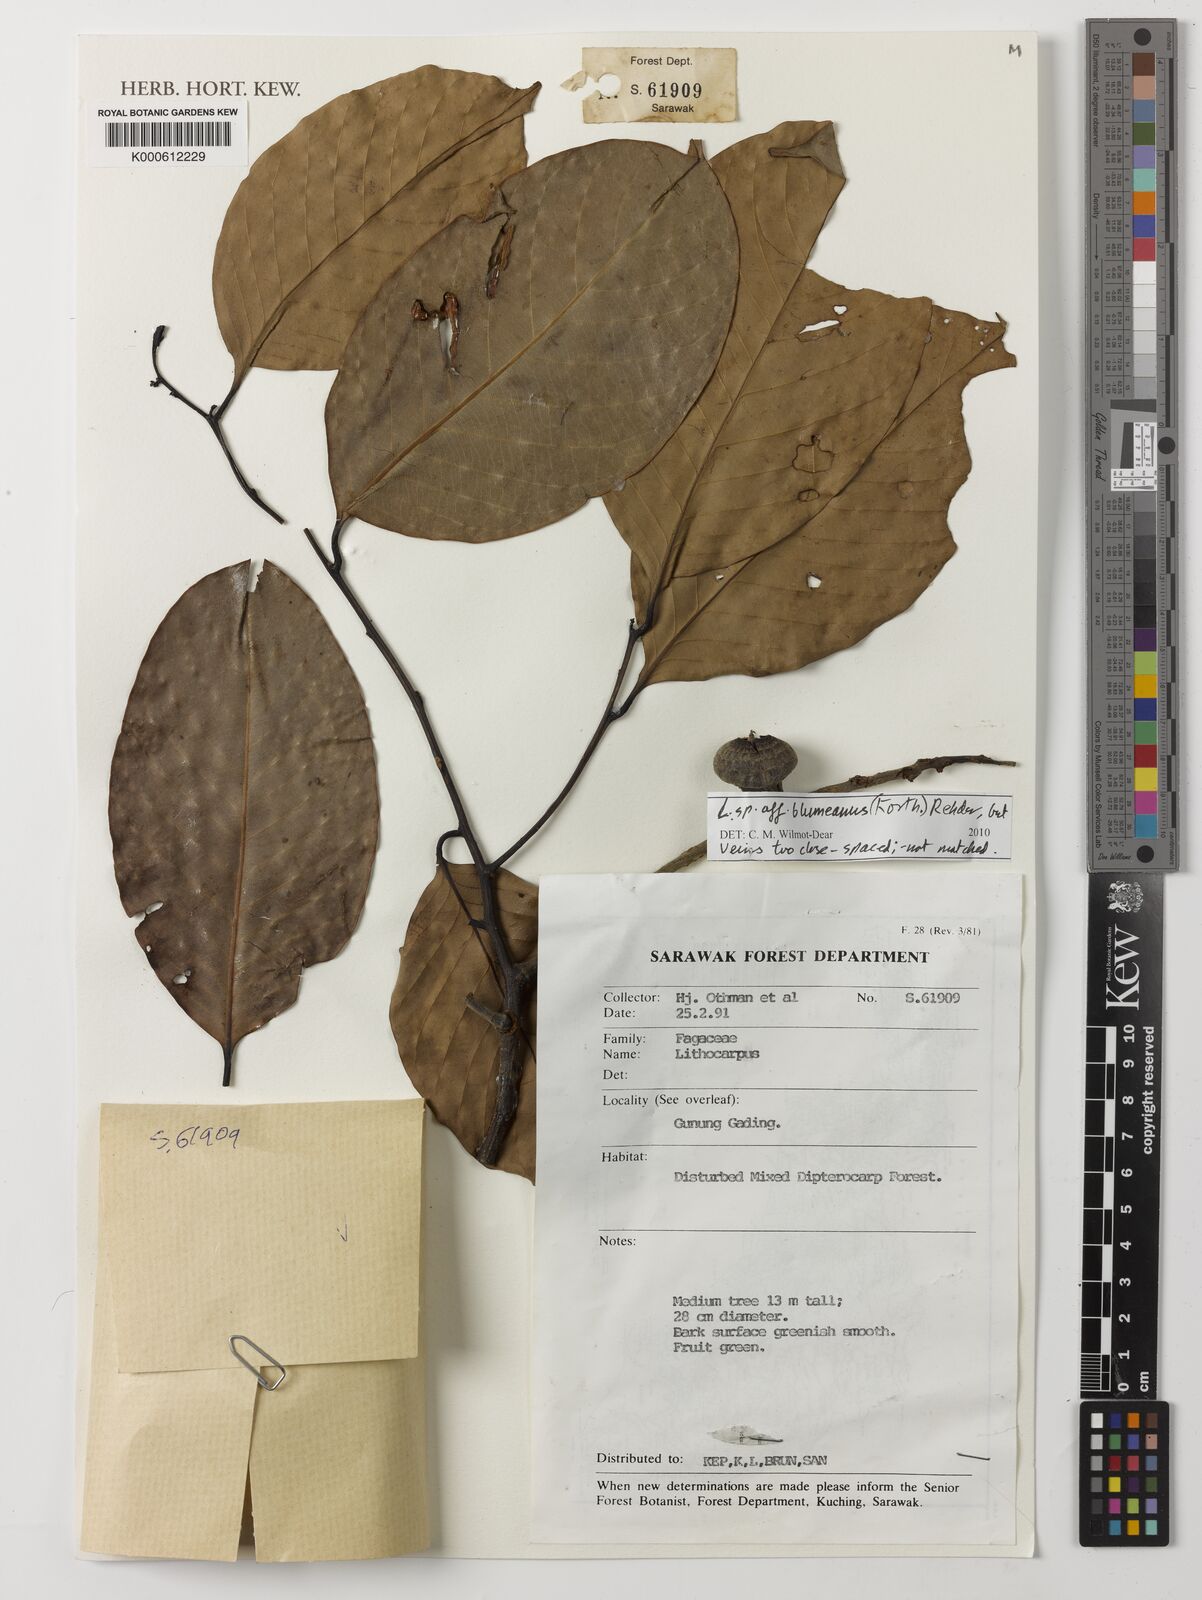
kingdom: Plantae
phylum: Tracheophyta
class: Magnoliopsida
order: Fagales
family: Fagaceae
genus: Lithocarpus
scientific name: Lithocarpus blumeanus
